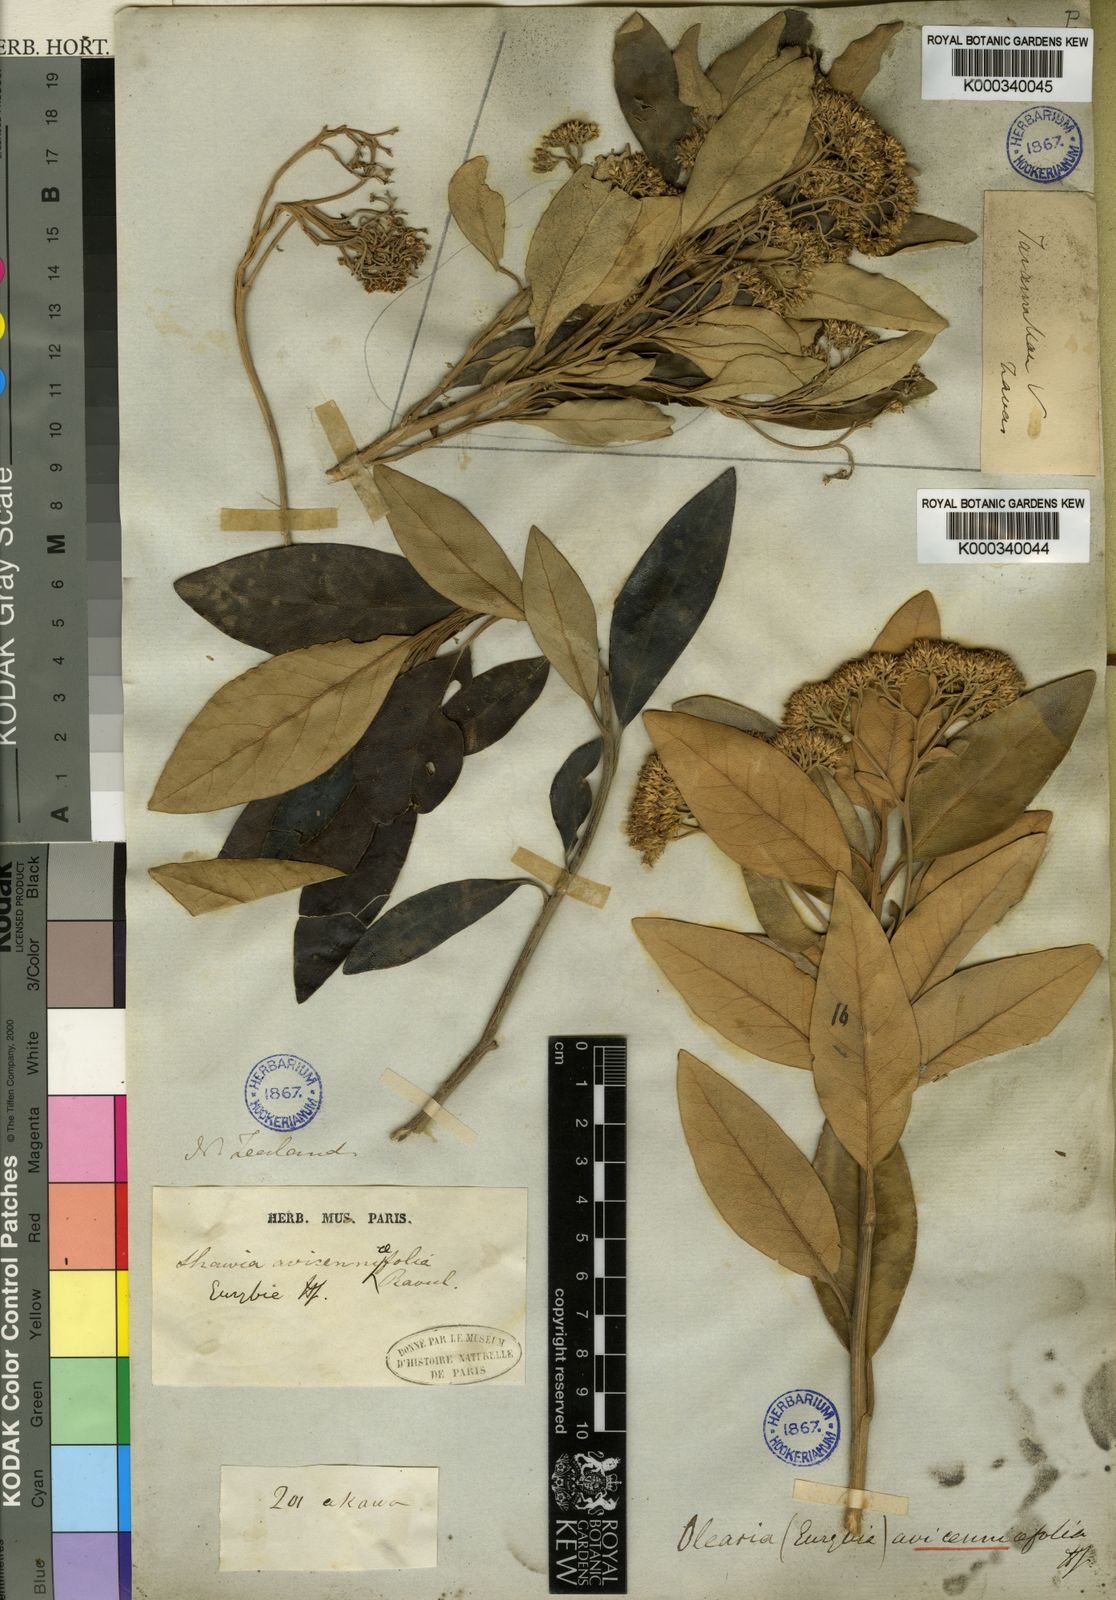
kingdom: Plantae
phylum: Tracheophyta
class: Magnoliopsida
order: Asterales
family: Asteraceae
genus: Olearia
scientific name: Olearia
